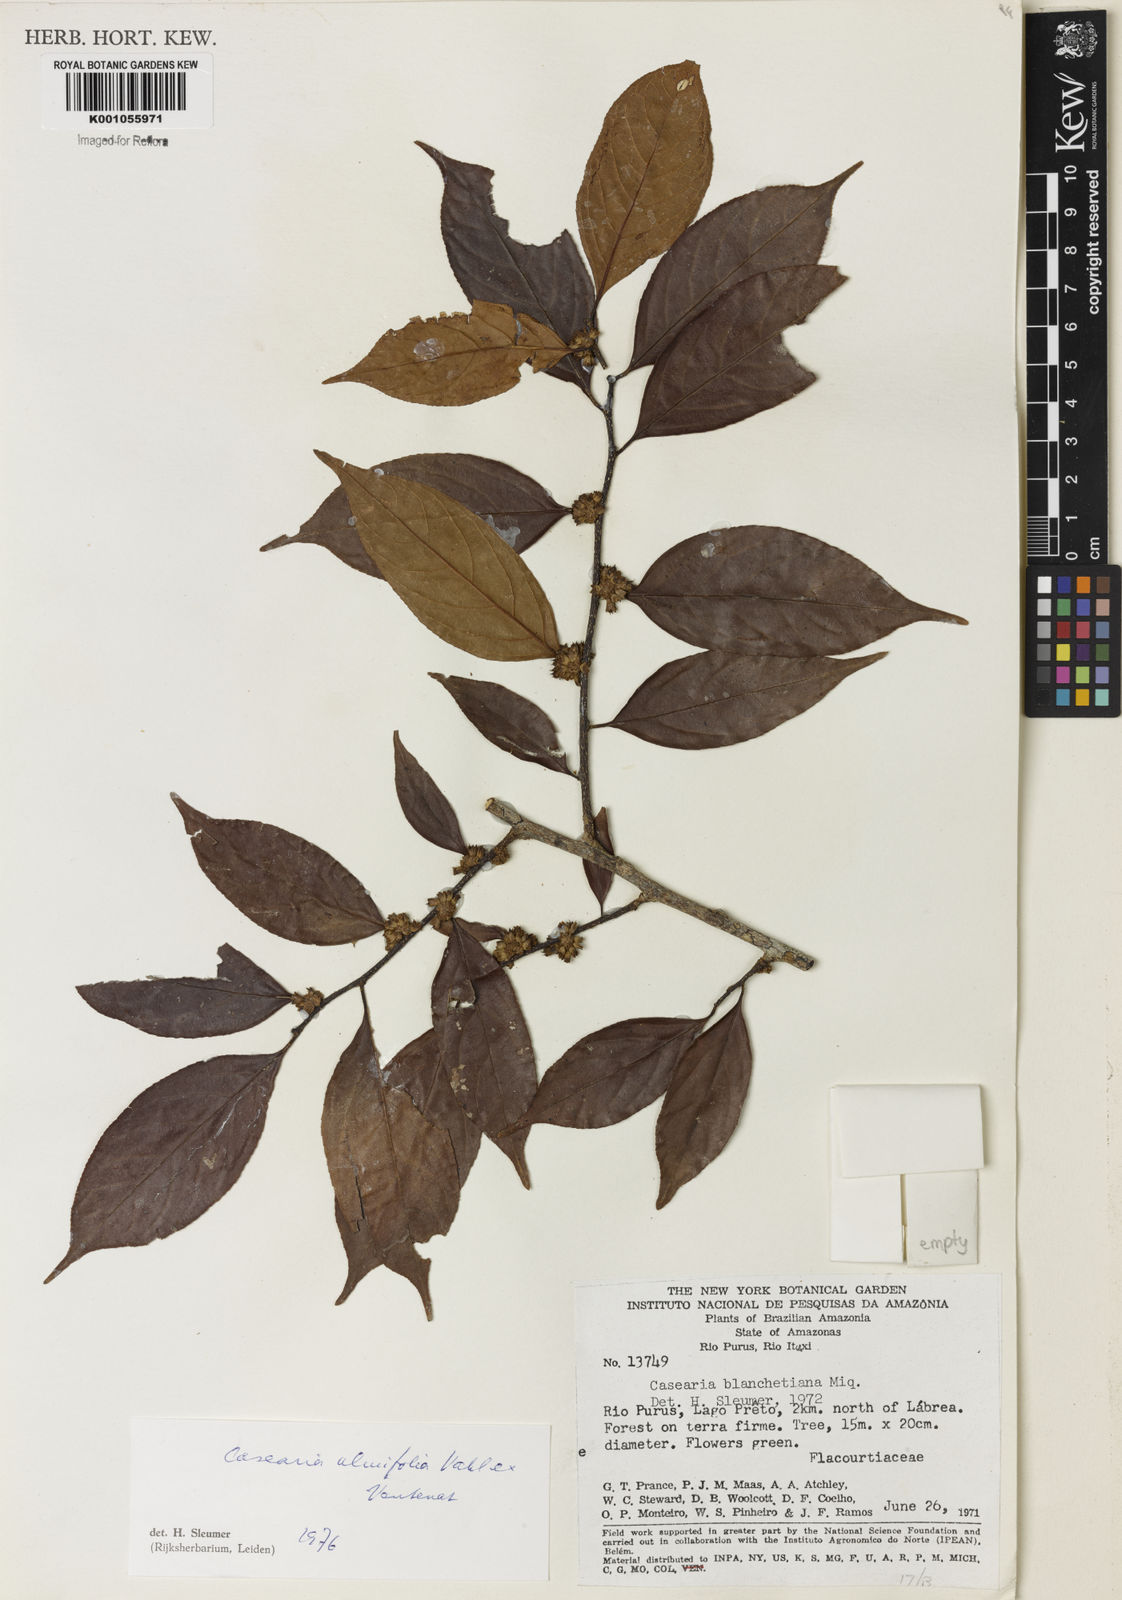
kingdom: Plantae
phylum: Tracheophyta
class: Magnoliopsida
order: Malpighiales
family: Salicaceae
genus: Casearia
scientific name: Casearia ulmifolia
